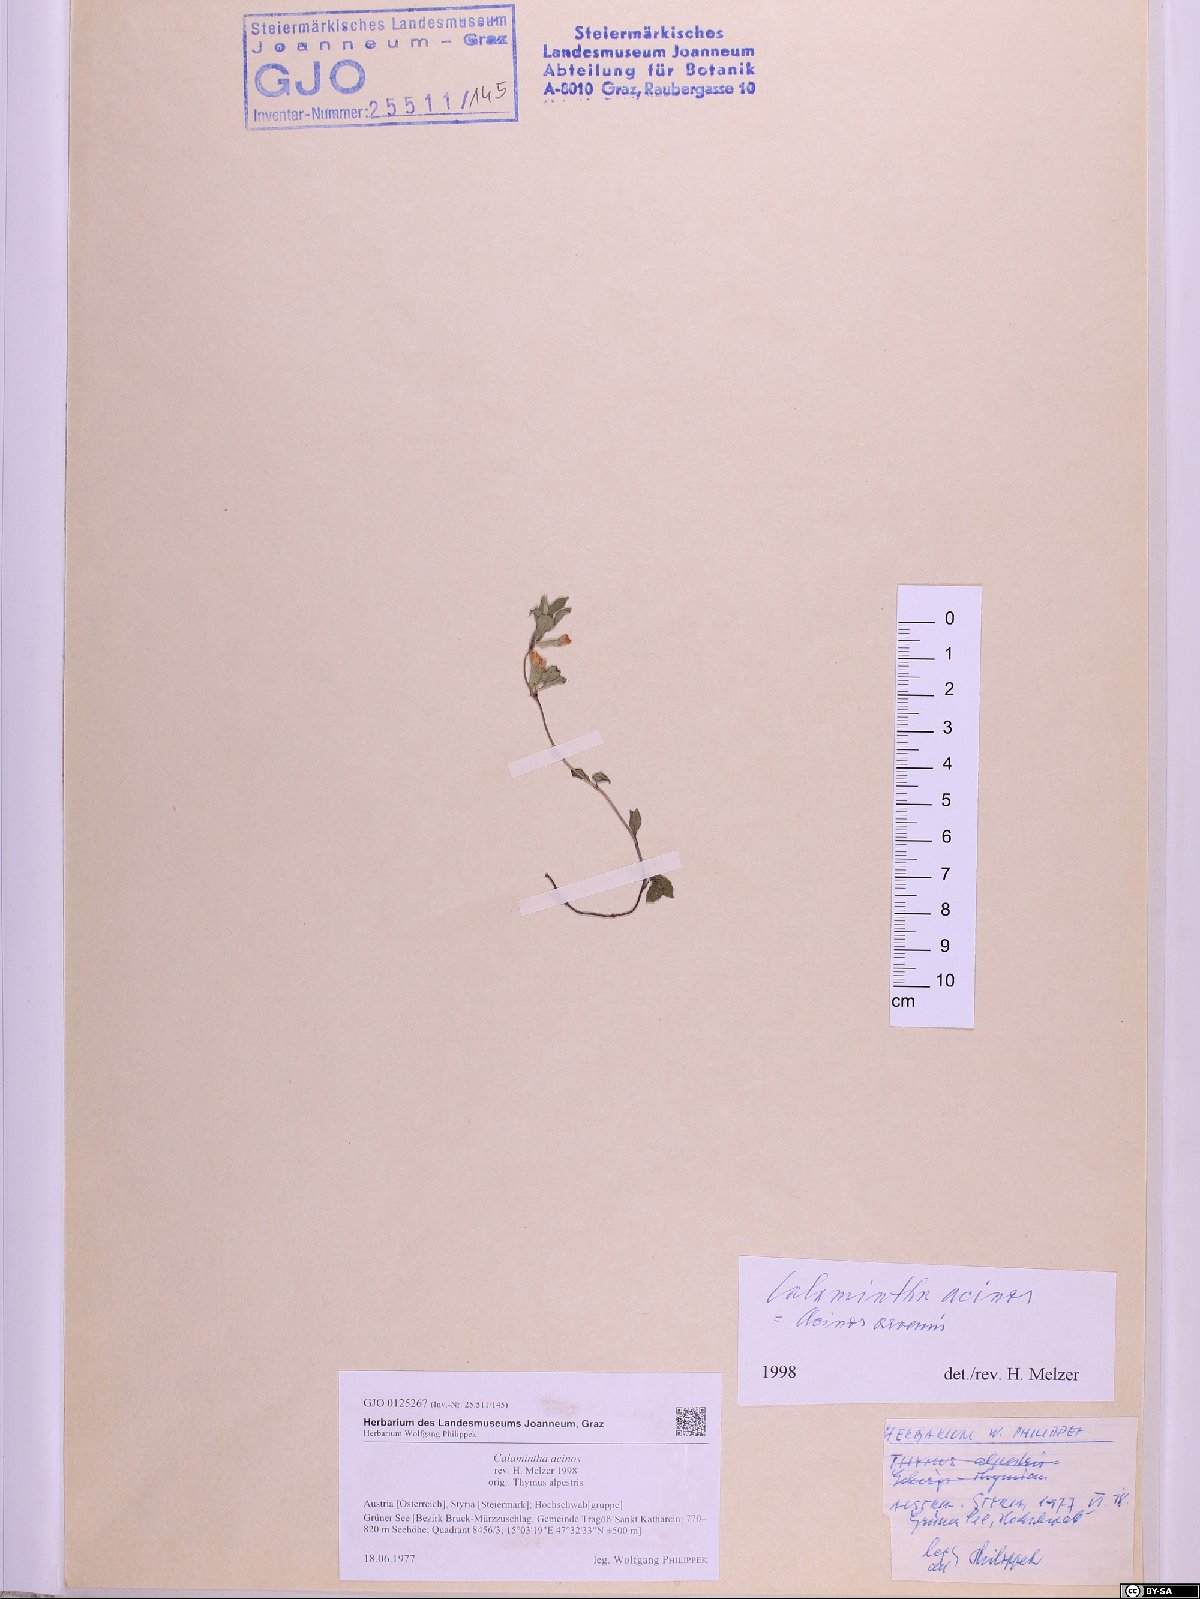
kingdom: Plantae
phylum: Tracheophyta
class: Magnoliopsida
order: Lamiales
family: Lamiaceae
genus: Clinopodium
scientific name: Clinopodium acinos
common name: Basil thyme
